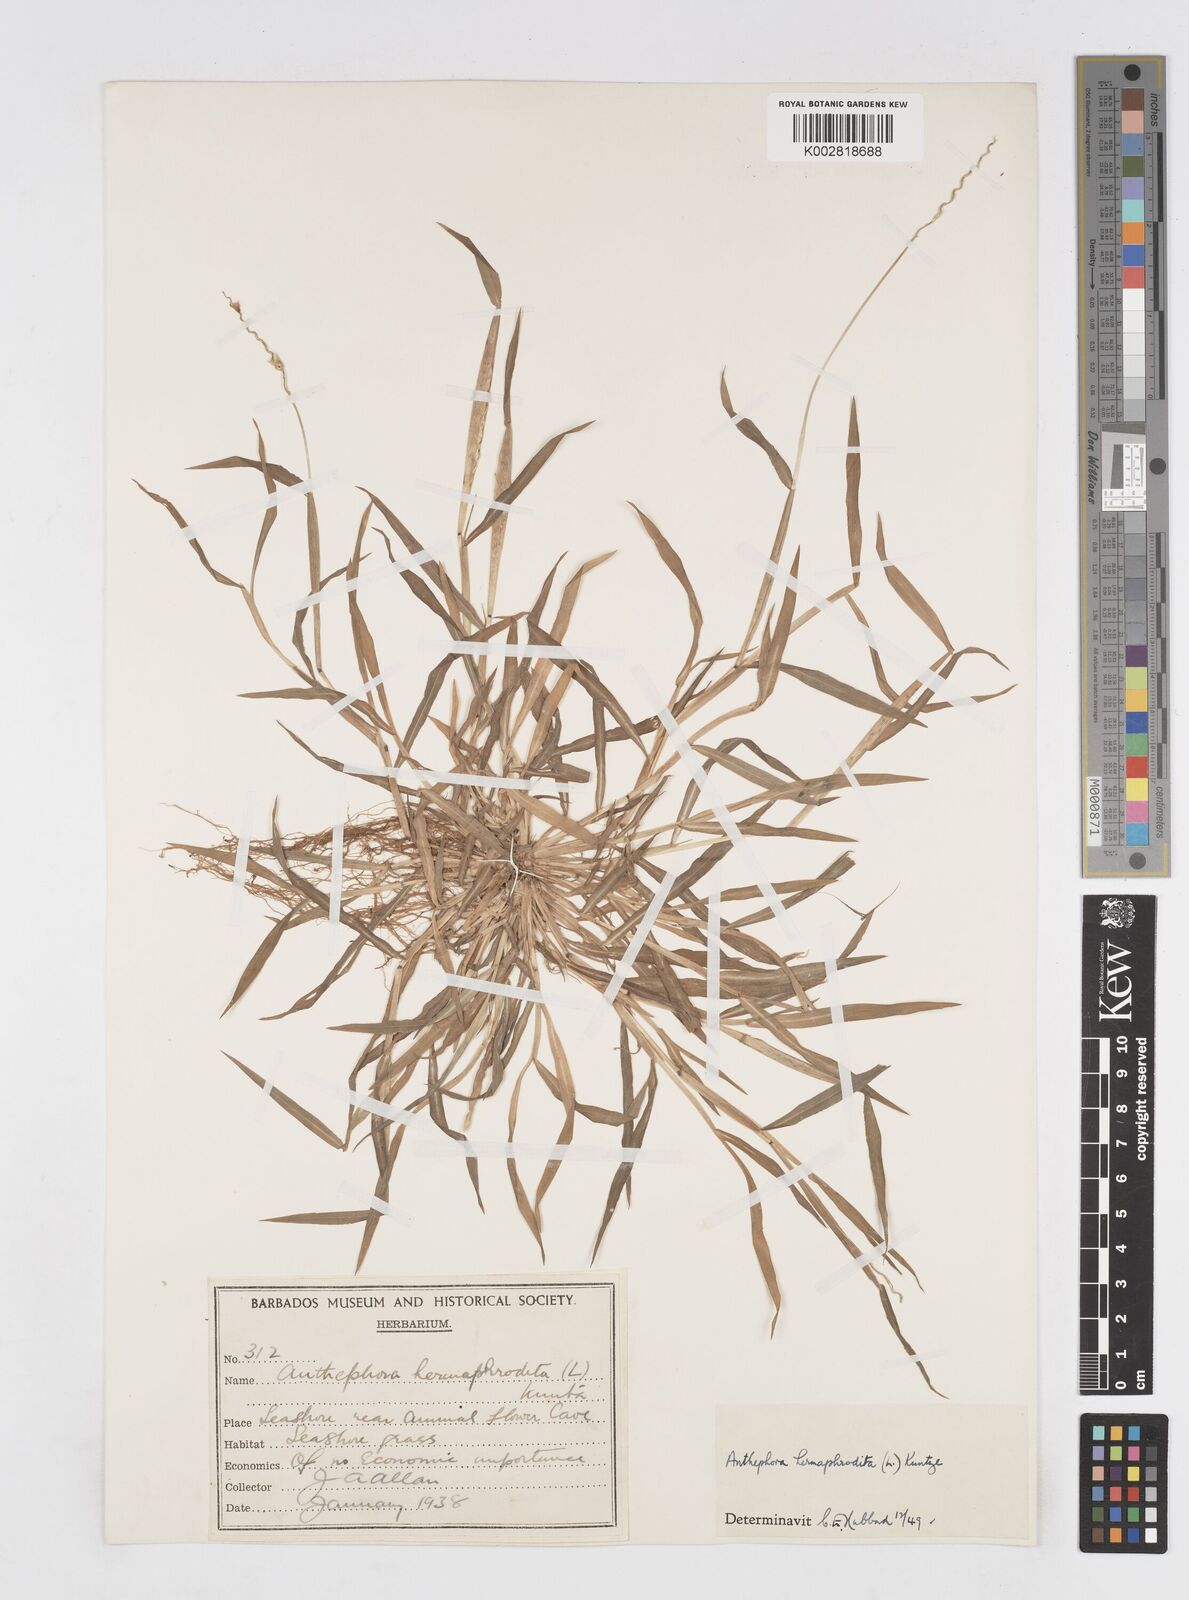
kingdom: Plantae
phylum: Tracheophyta
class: Liliopsida
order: Poales
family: Poaceae
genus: Anthephora
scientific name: Anthephora hermaphrodita
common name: Oldfield grass
